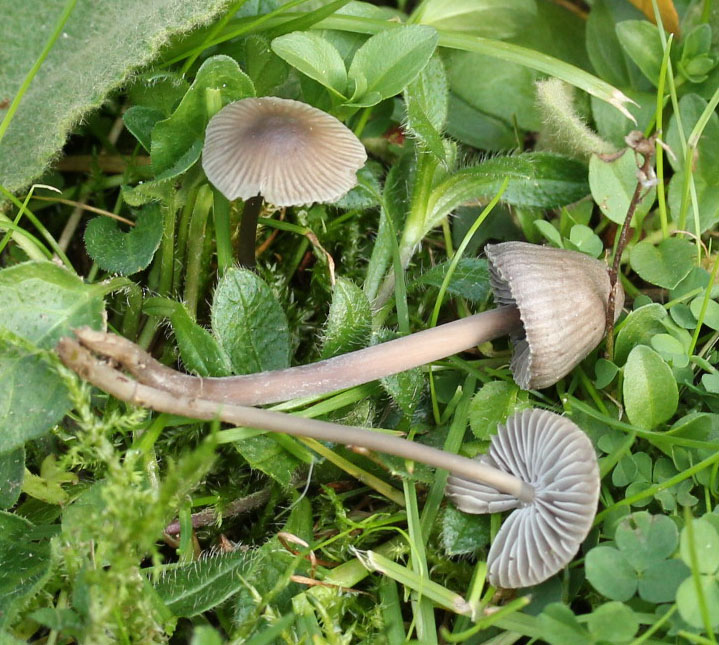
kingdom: Fungi
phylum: Basidiomycota
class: Agaricomycetes
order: Agaricales
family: Mycenaceae
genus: Mycena
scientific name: Mycena aetites
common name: plæne-huesvamp
